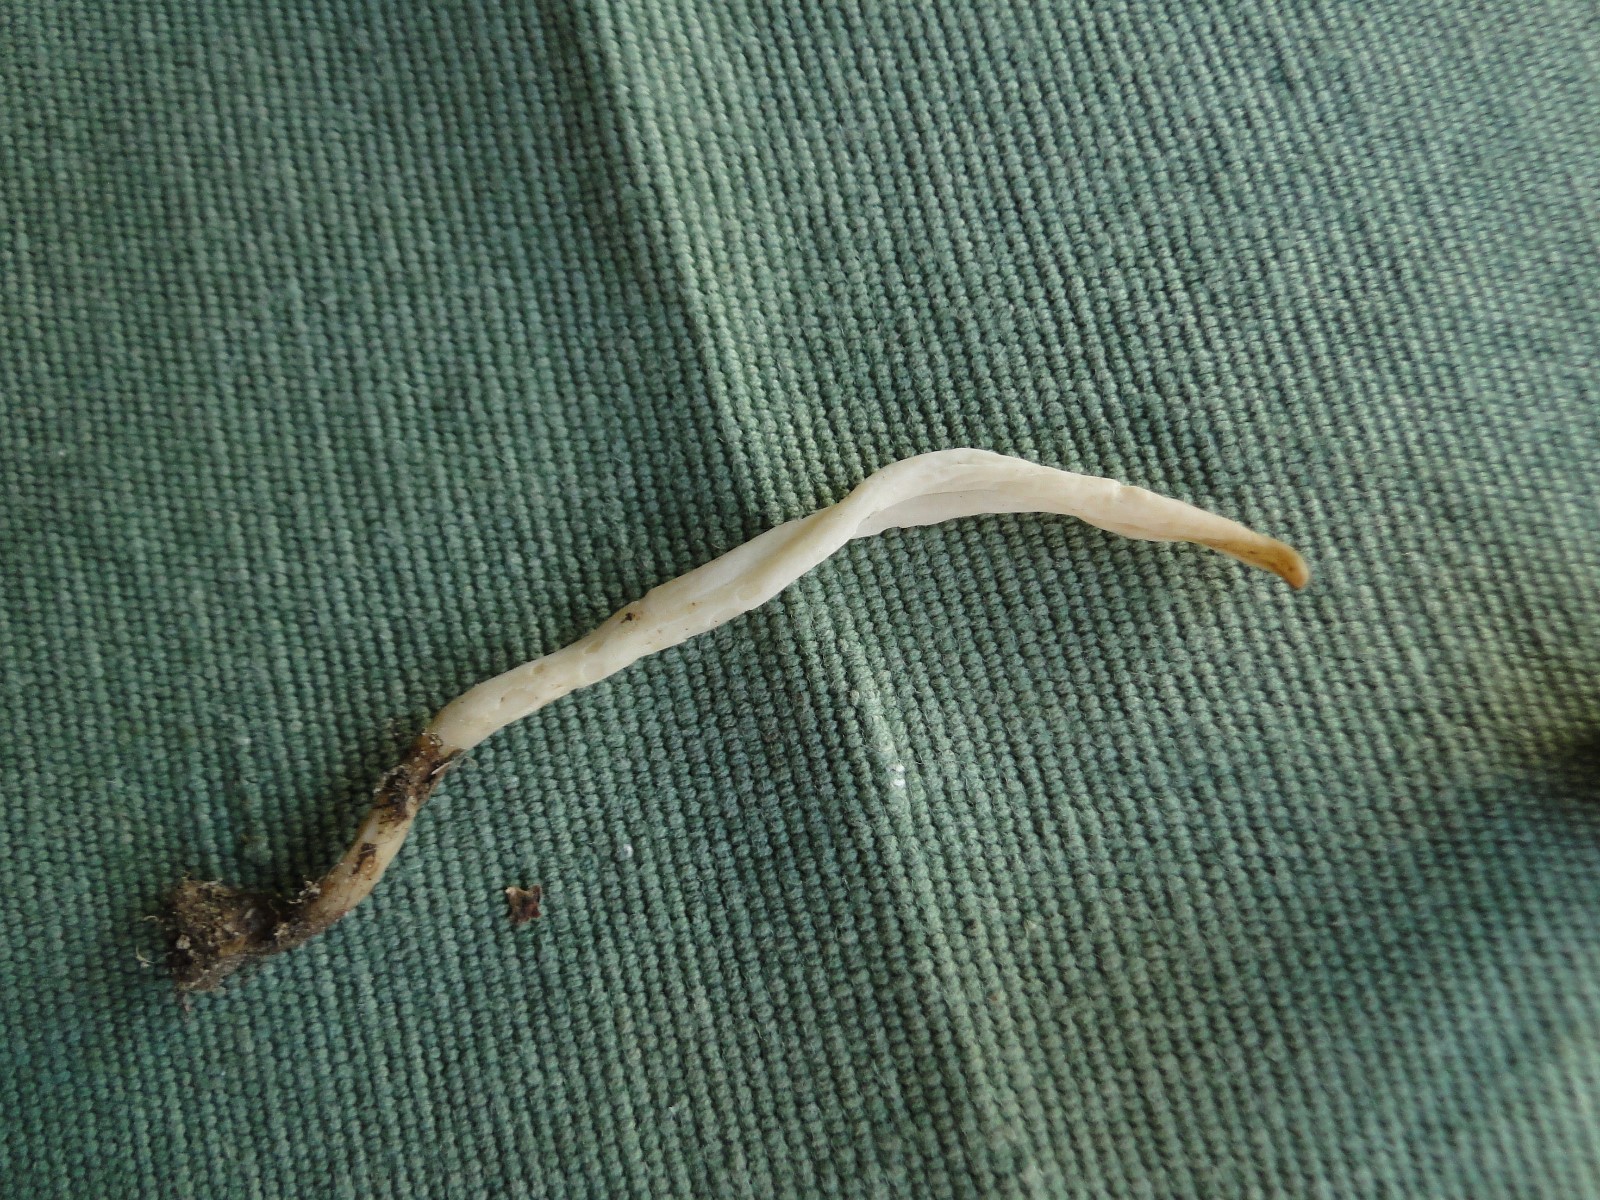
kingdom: Fungi
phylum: Basidiomycota
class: Agaricomycetes
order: Agaricales
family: Clavariaceae
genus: Clavaria
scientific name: Clavaria falcata
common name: hvid køllesvamp
